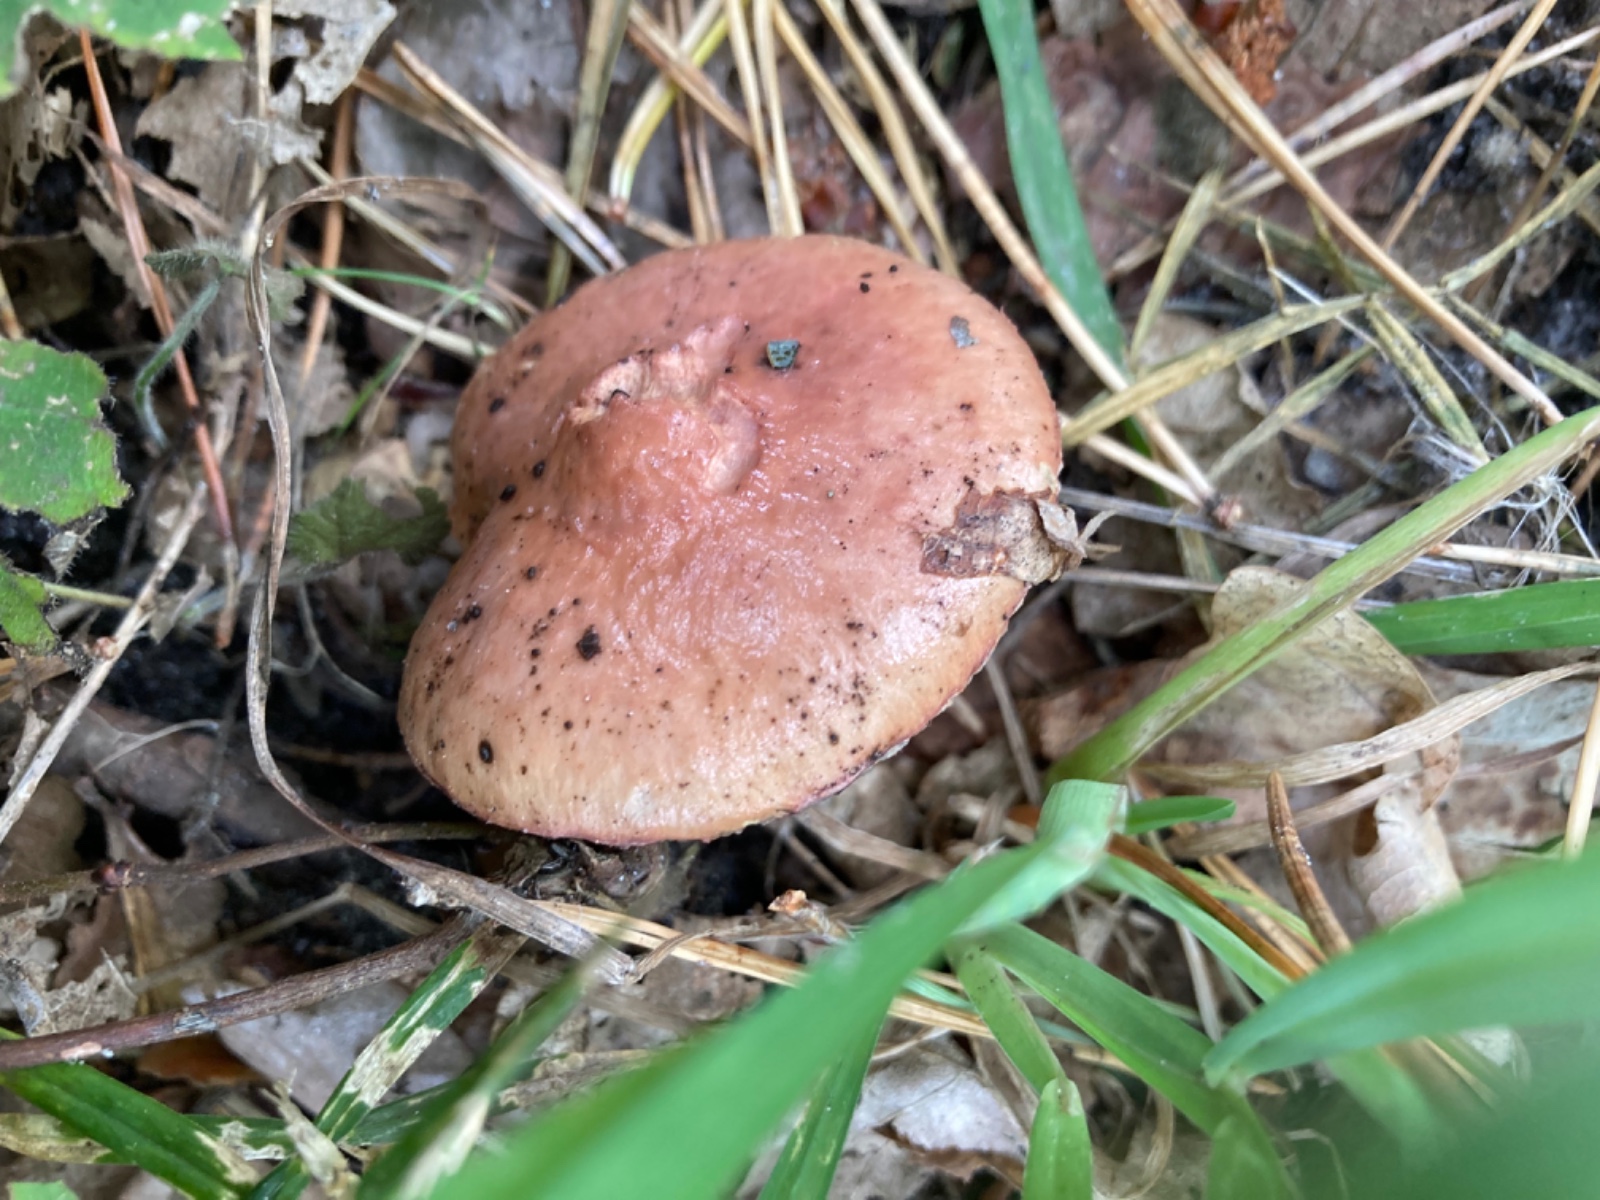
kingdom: Fungi
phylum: Basidiomycota
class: Agaricomycetes
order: Boletales
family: Gomphidiaceae
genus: Chroogomphus
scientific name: Chroogomphus rutilus
